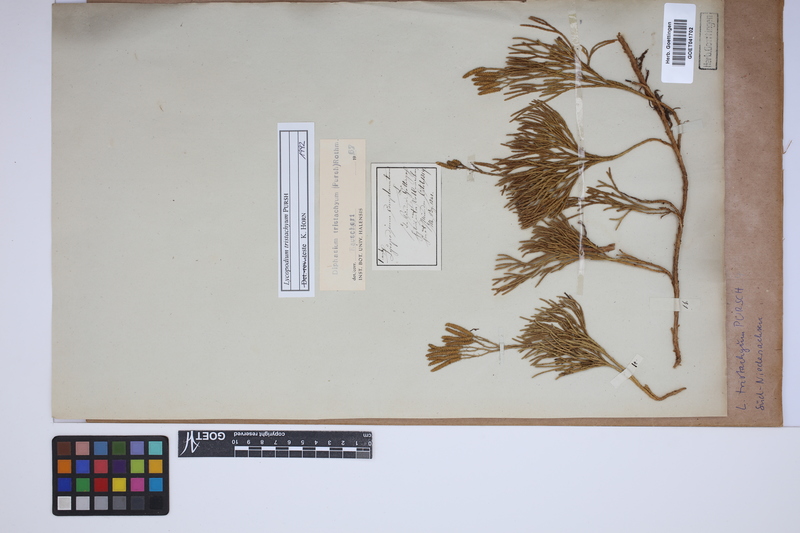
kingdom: Plantae
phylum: Tracheophyta
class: Lycopodiopsida
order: Lycopodiales
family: Lycopodiaceae
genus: Diphasiastrum
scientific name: Diphasiastrum tristachyum
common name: Blue ground-cedar
